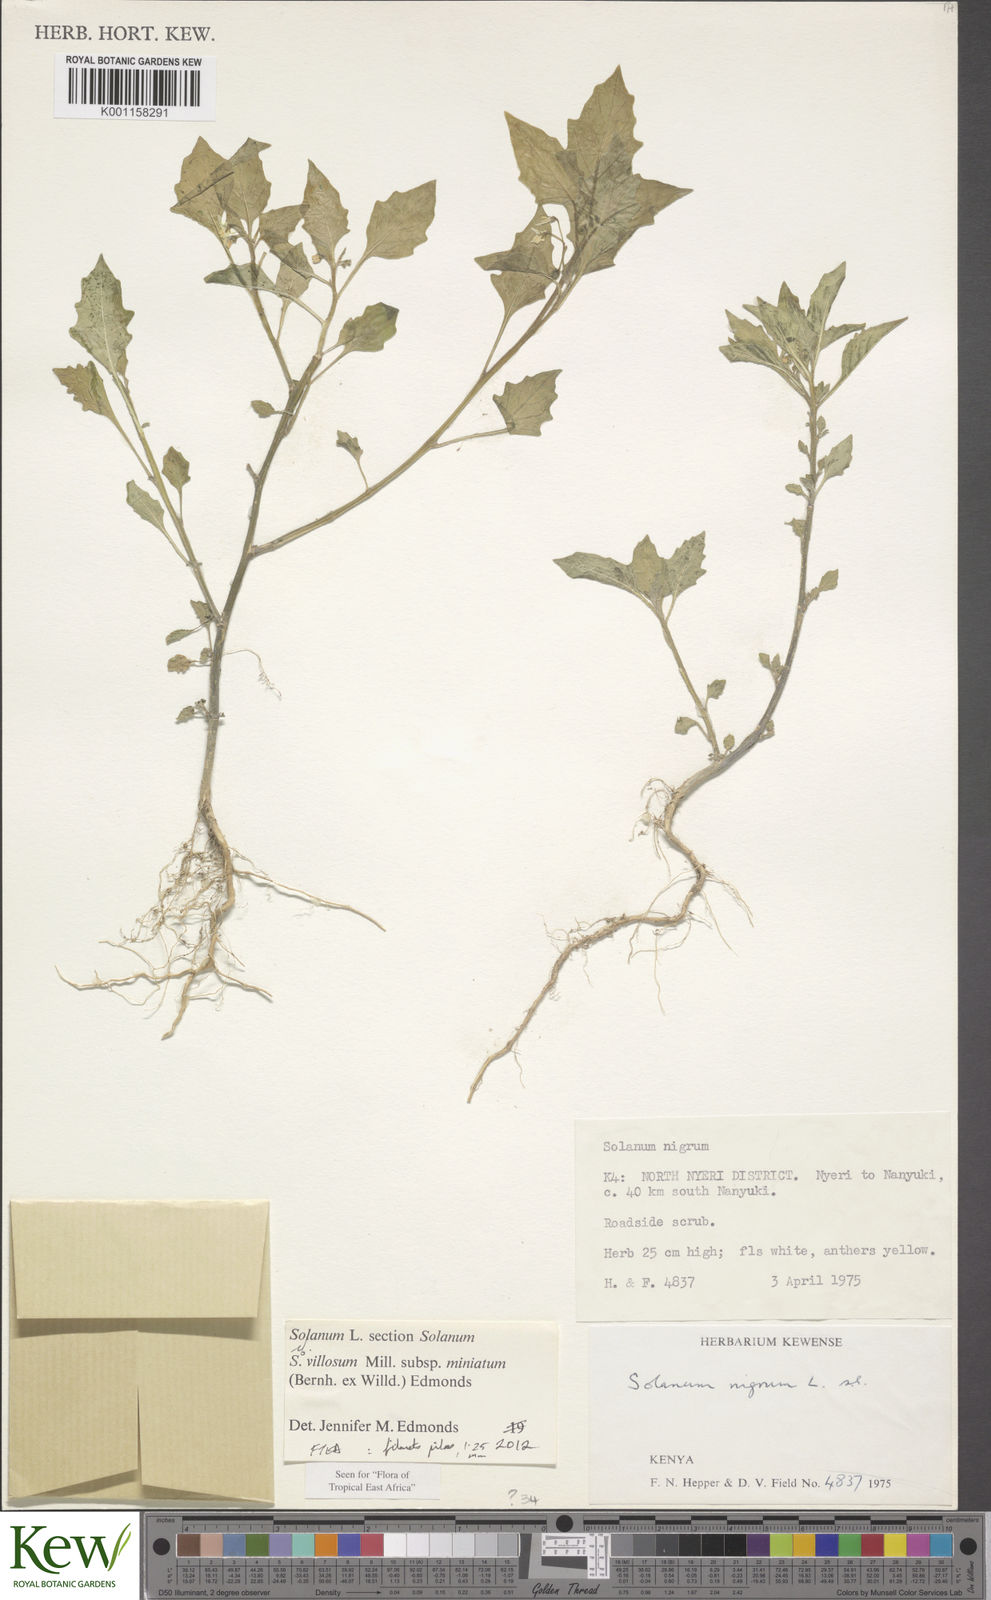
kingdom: Plantae
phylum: Tracheophyta
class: Magnoliopsida
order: Solanales
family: Solanaceae
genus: Solanum
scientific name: Solanum villosum
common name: Red nightshade
